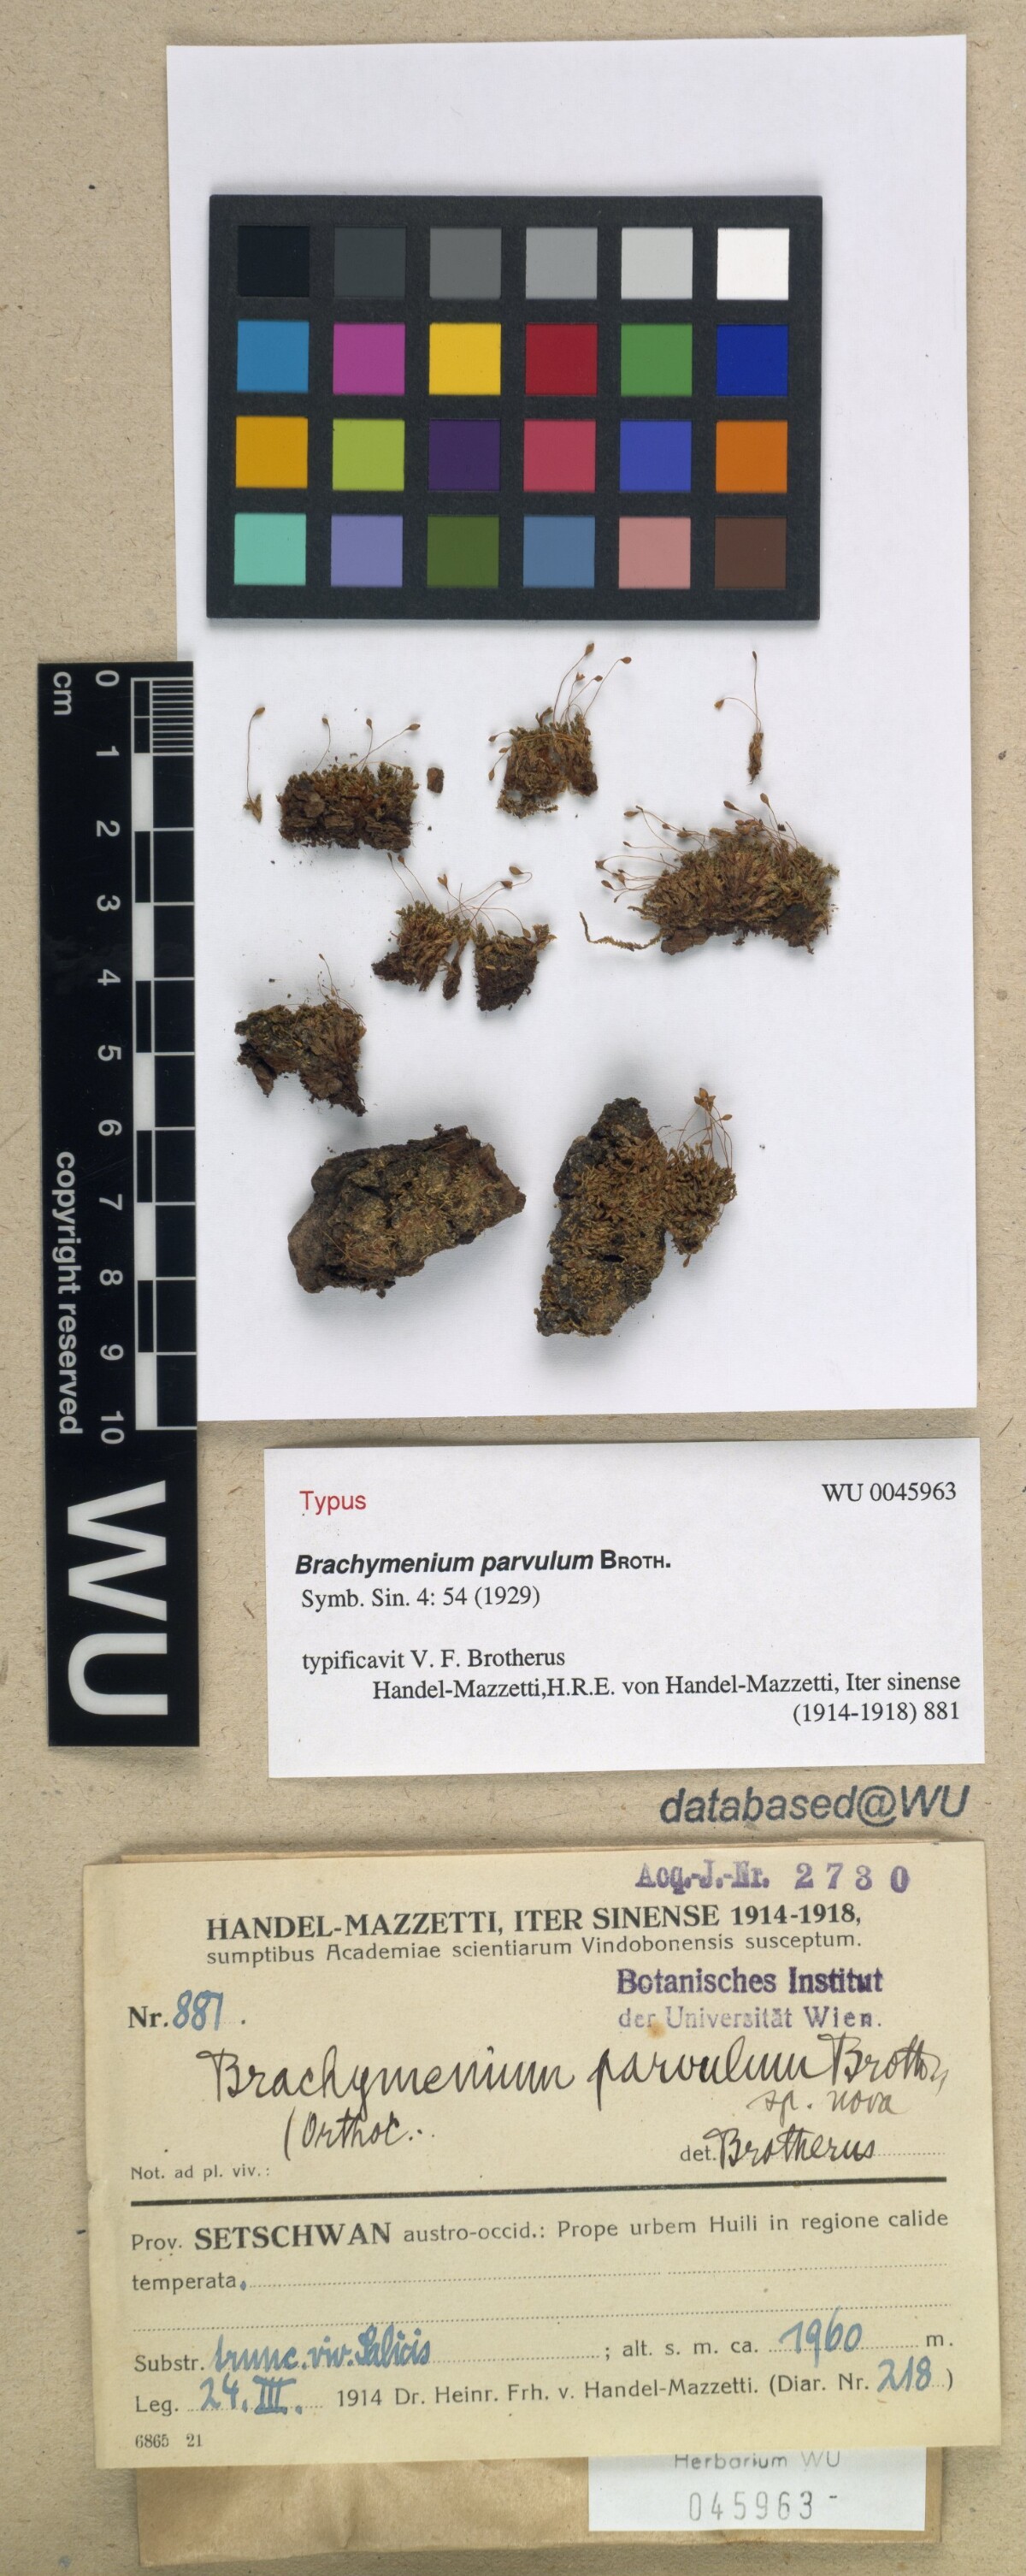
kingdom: Plantae
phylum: Bryophyta
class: Bryopsida
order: Bryales
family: Bryaceae
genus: Brachymenium
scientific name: Brachymenium nepalense
